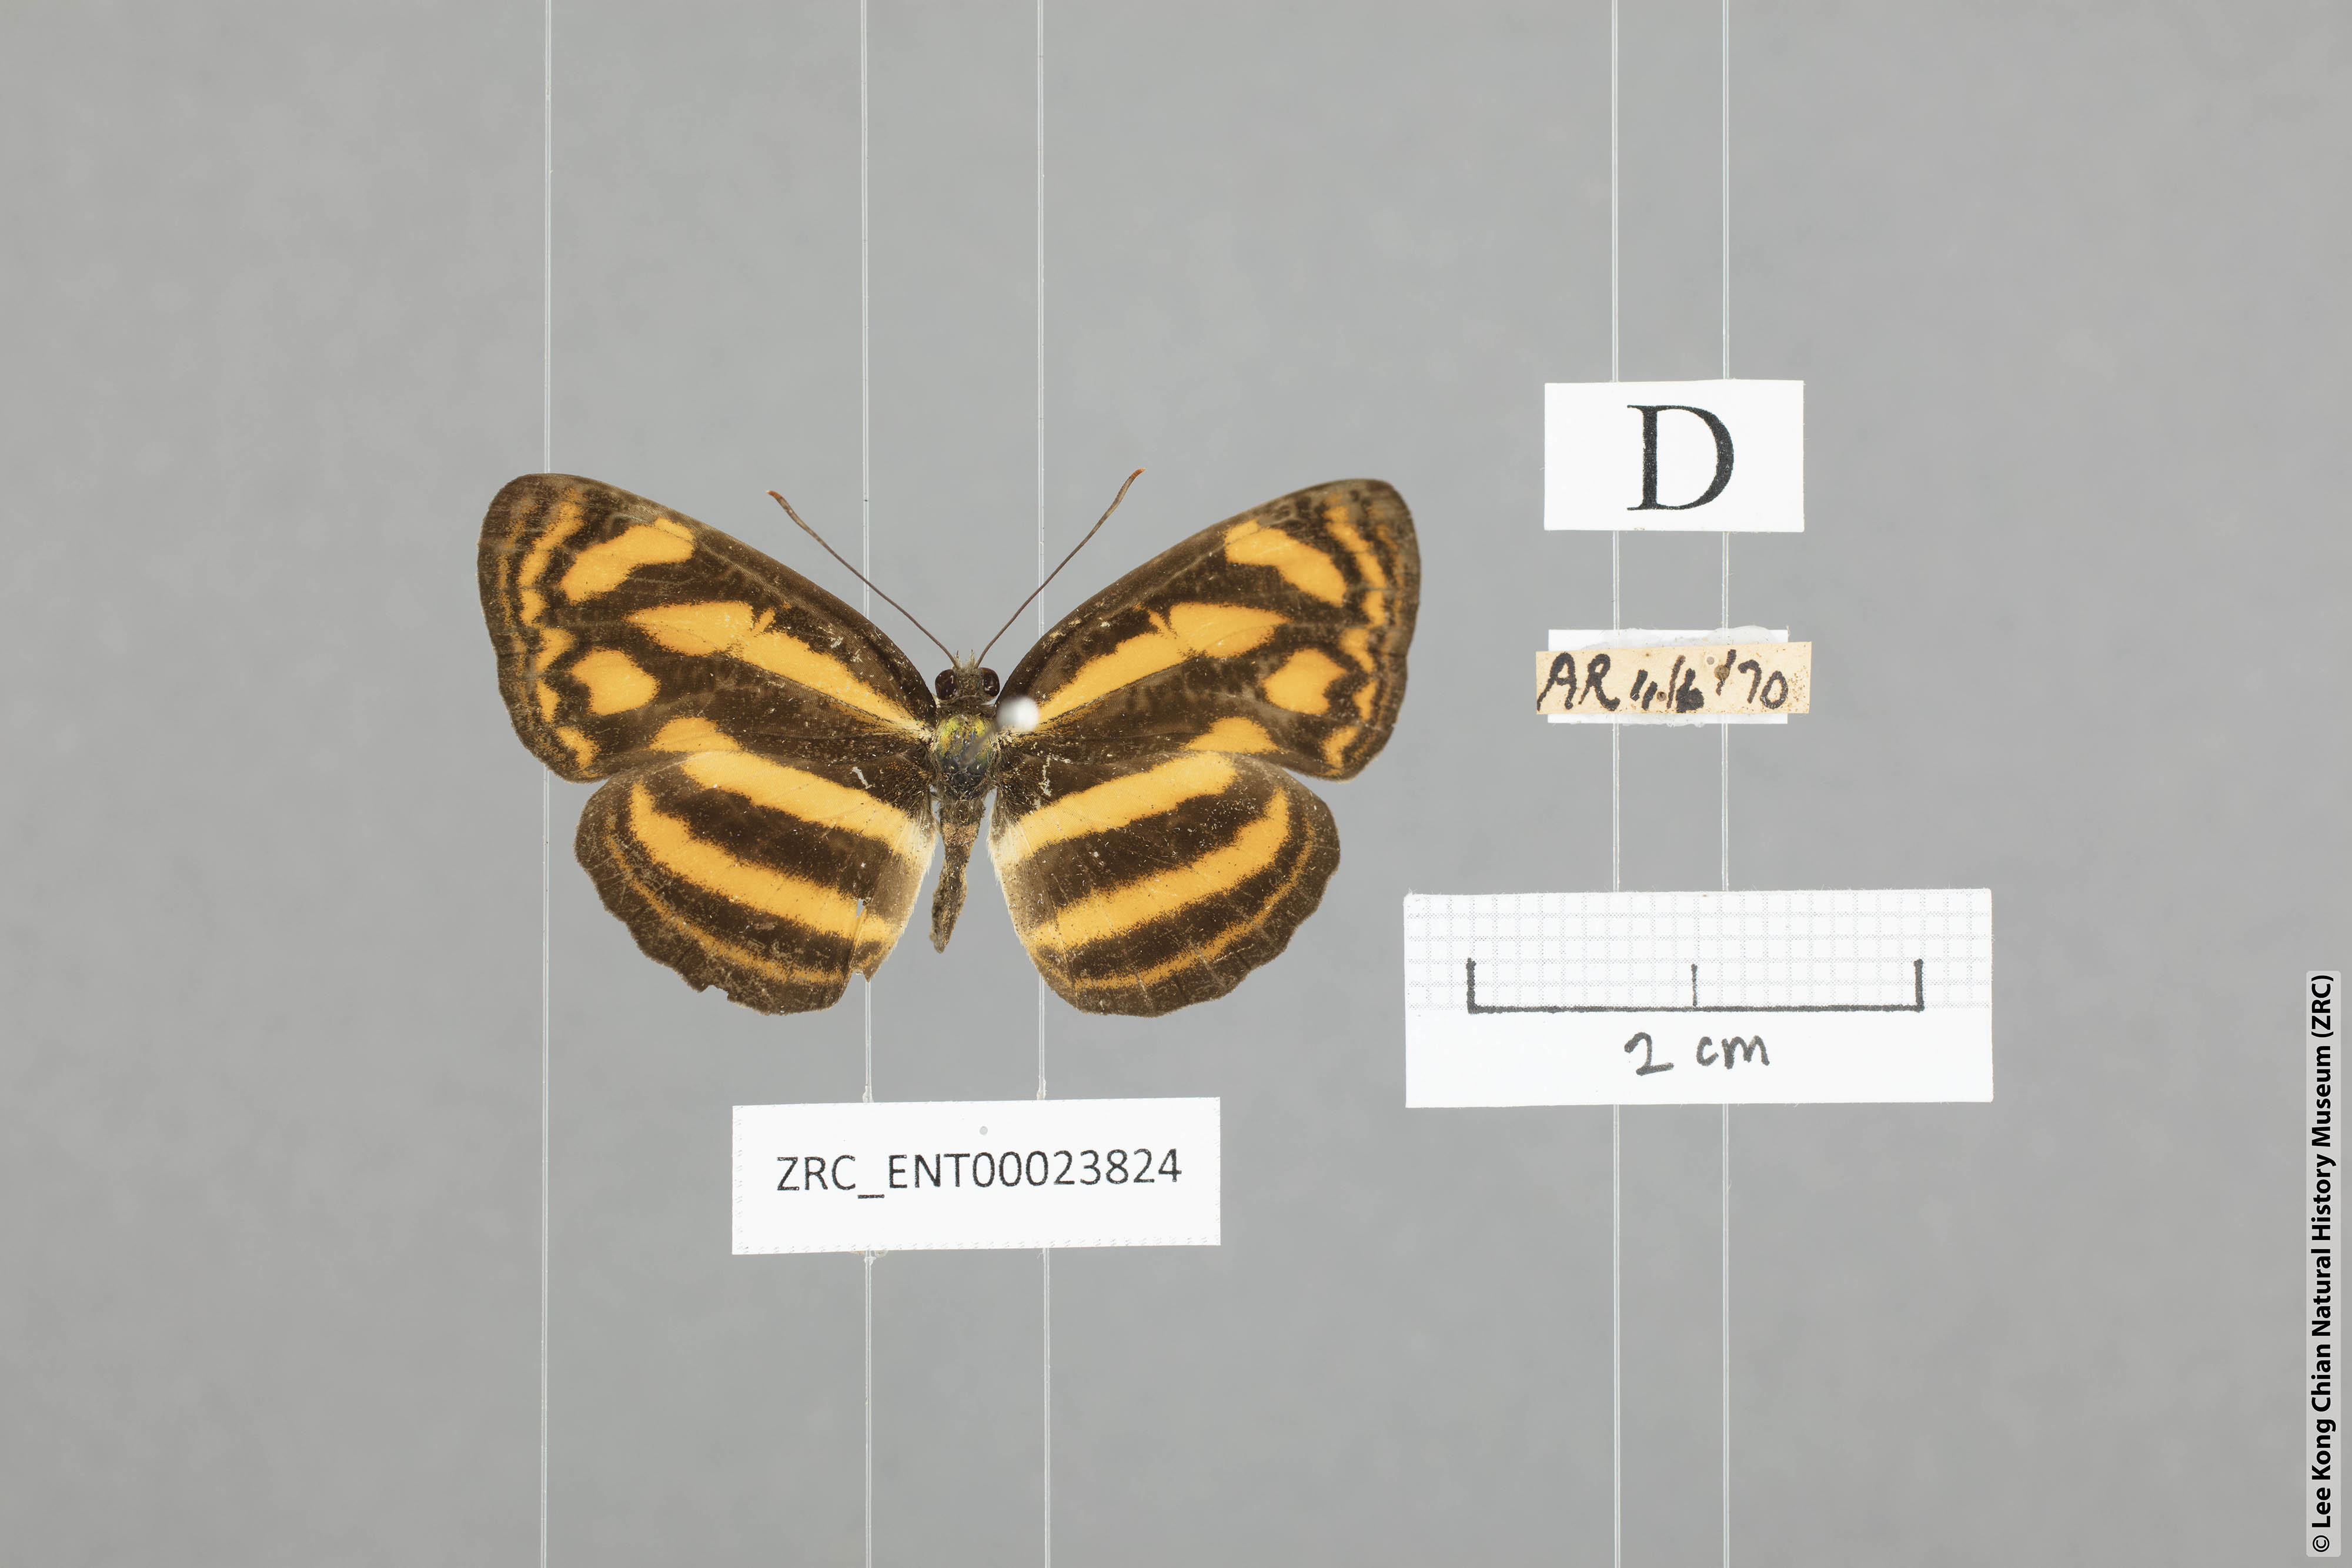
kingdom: Animalia
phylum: Arthropoda
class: Insecta
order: Lepidoptera
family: Nymphalidae
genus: Lasippa
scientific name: Lasippa heliodore
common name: Burmese lascar
